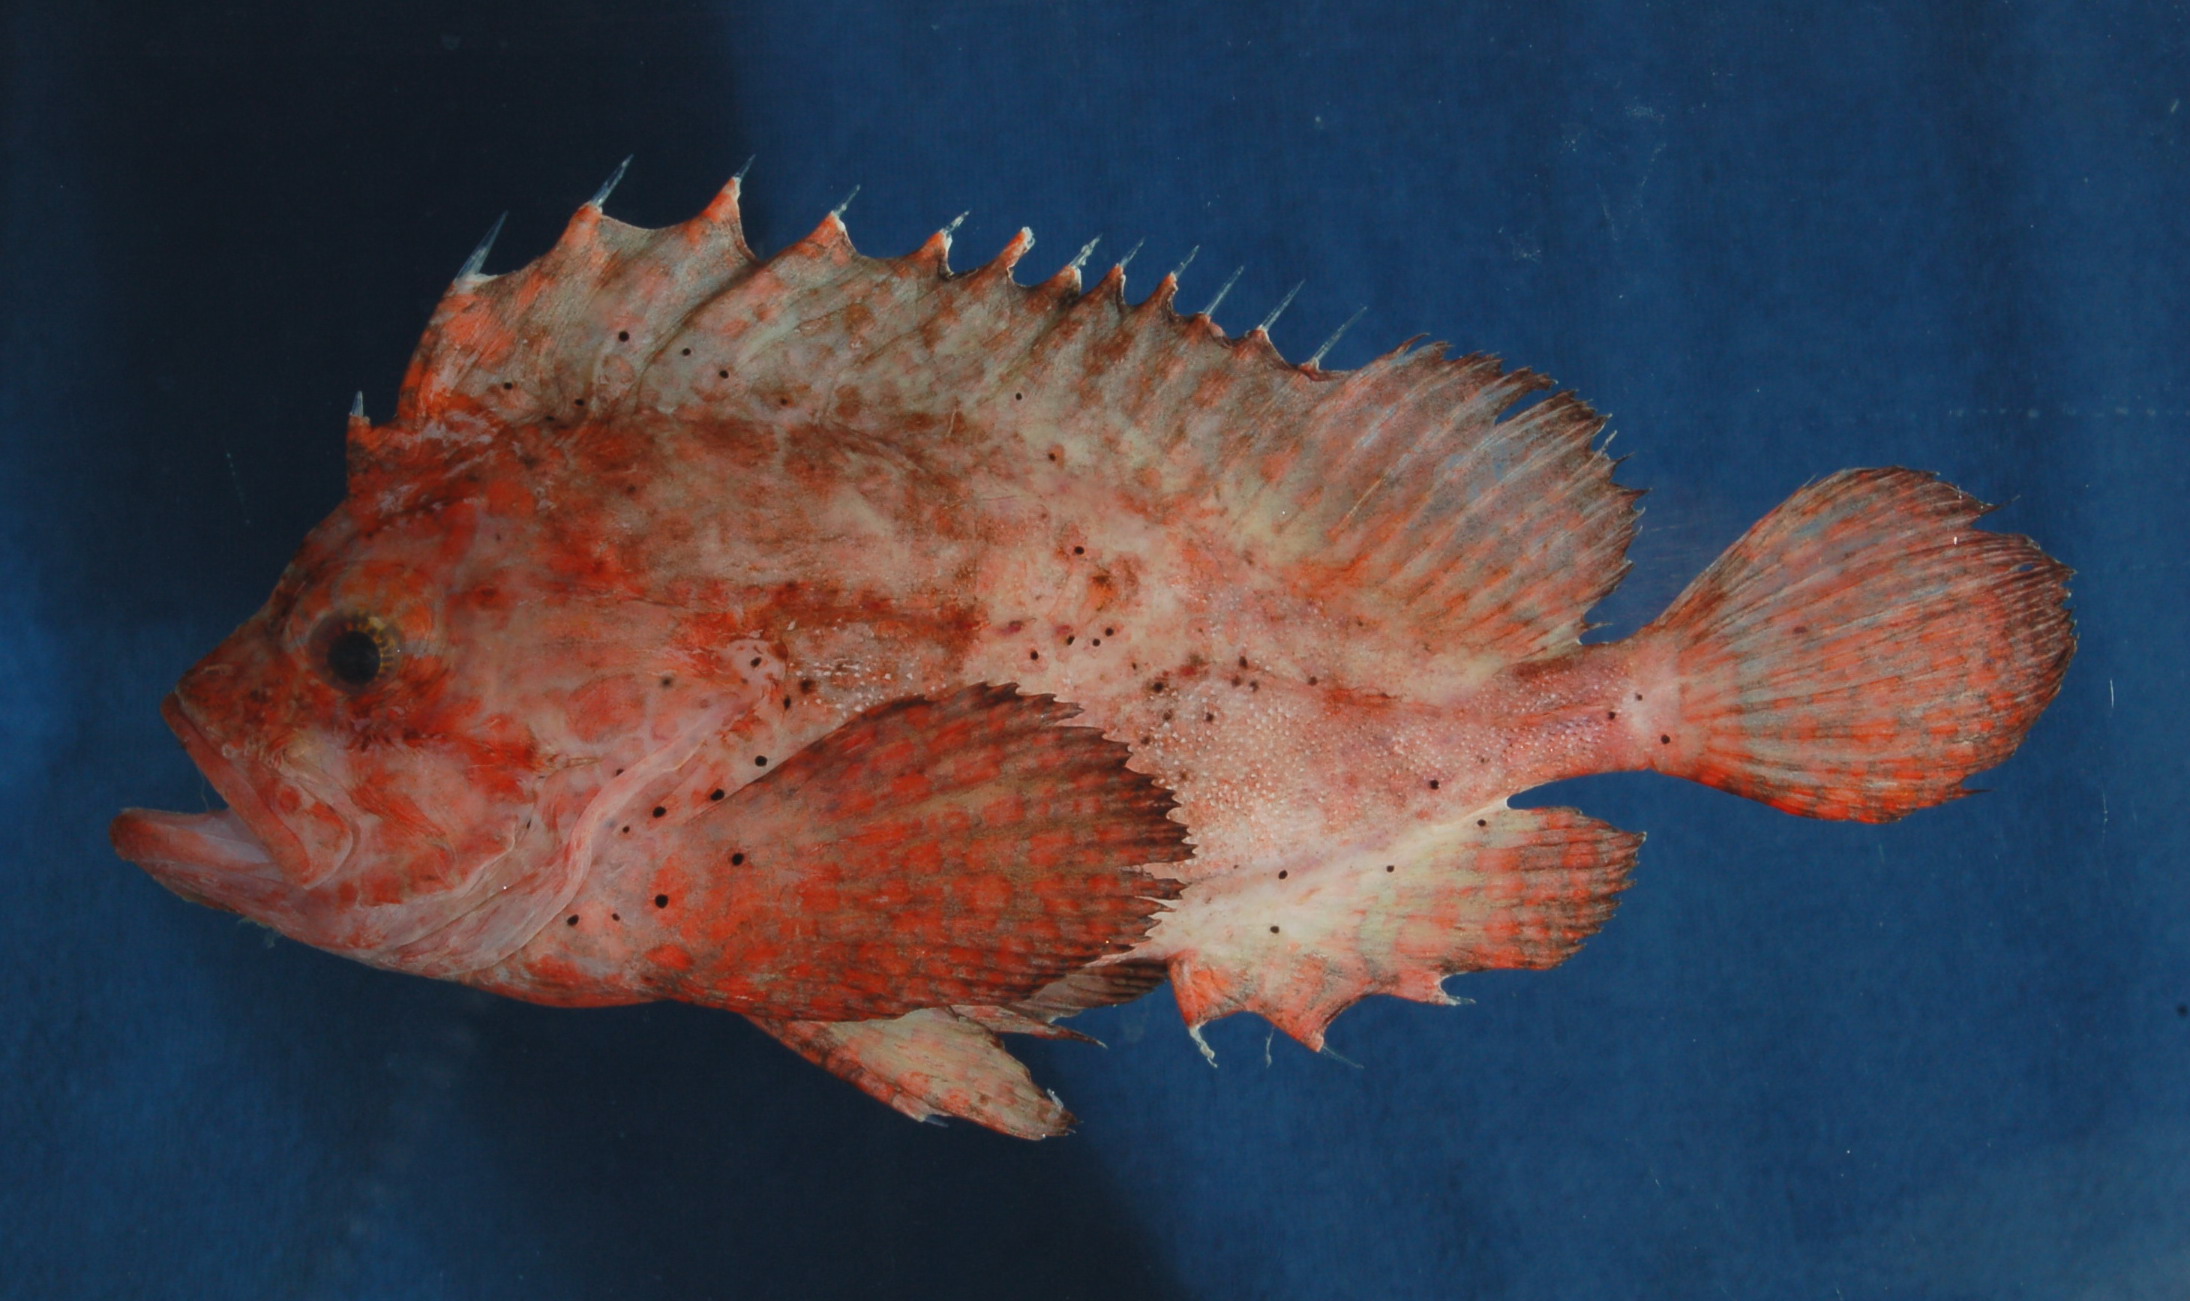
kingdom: Animalia
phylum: Chordata
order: Scorpaeniformes
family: Tetrarogidae
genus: Snyderina
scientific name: Snyderina
